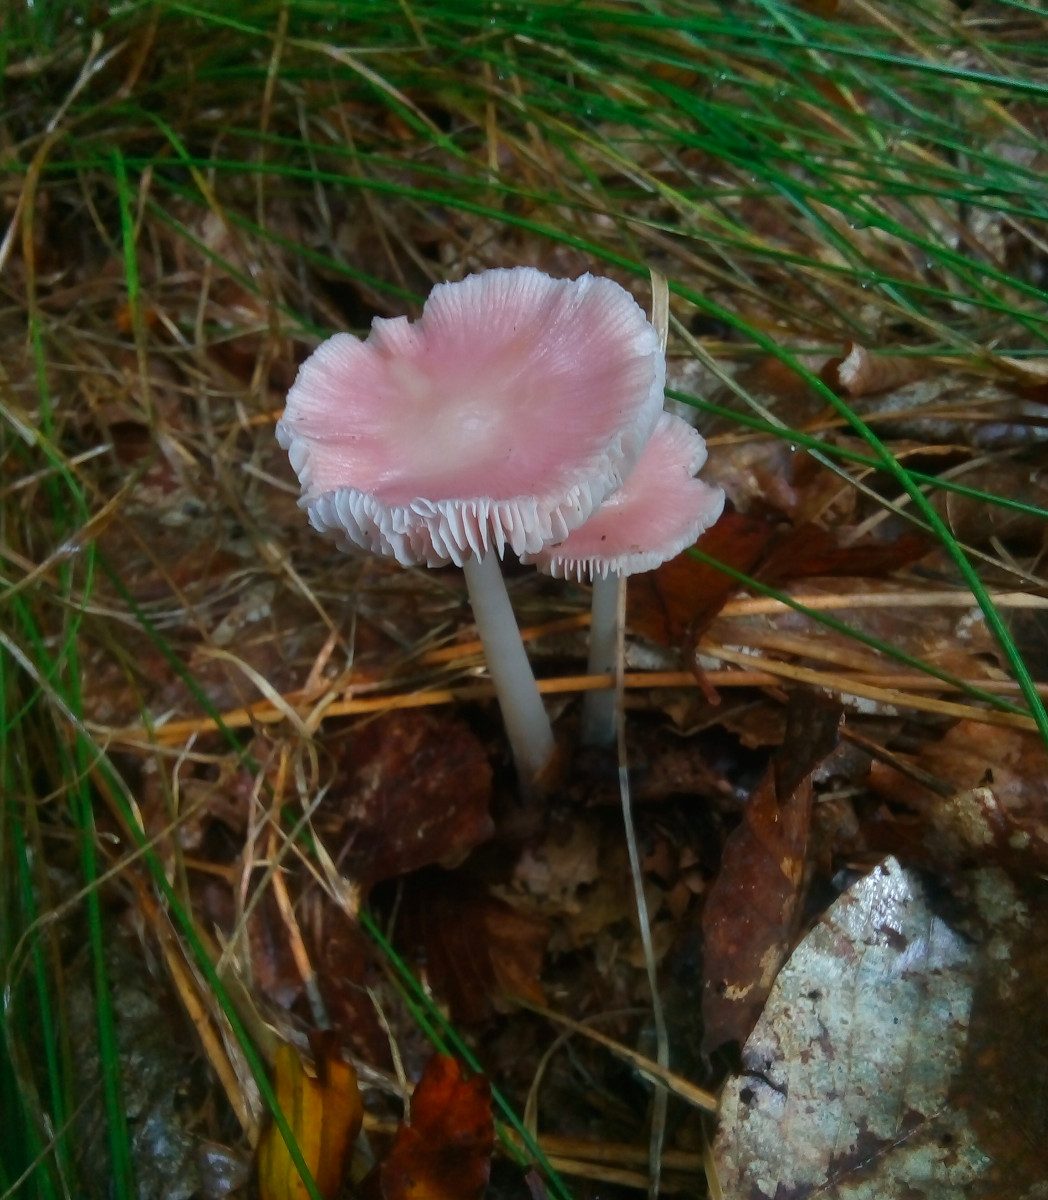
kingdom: Fungi
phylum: Basidiomycota
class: Agaricomycetes
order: Agaricales
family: Mycenaceae
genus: Mycena
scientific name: Mycena rosea
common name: rosa huesvamp
